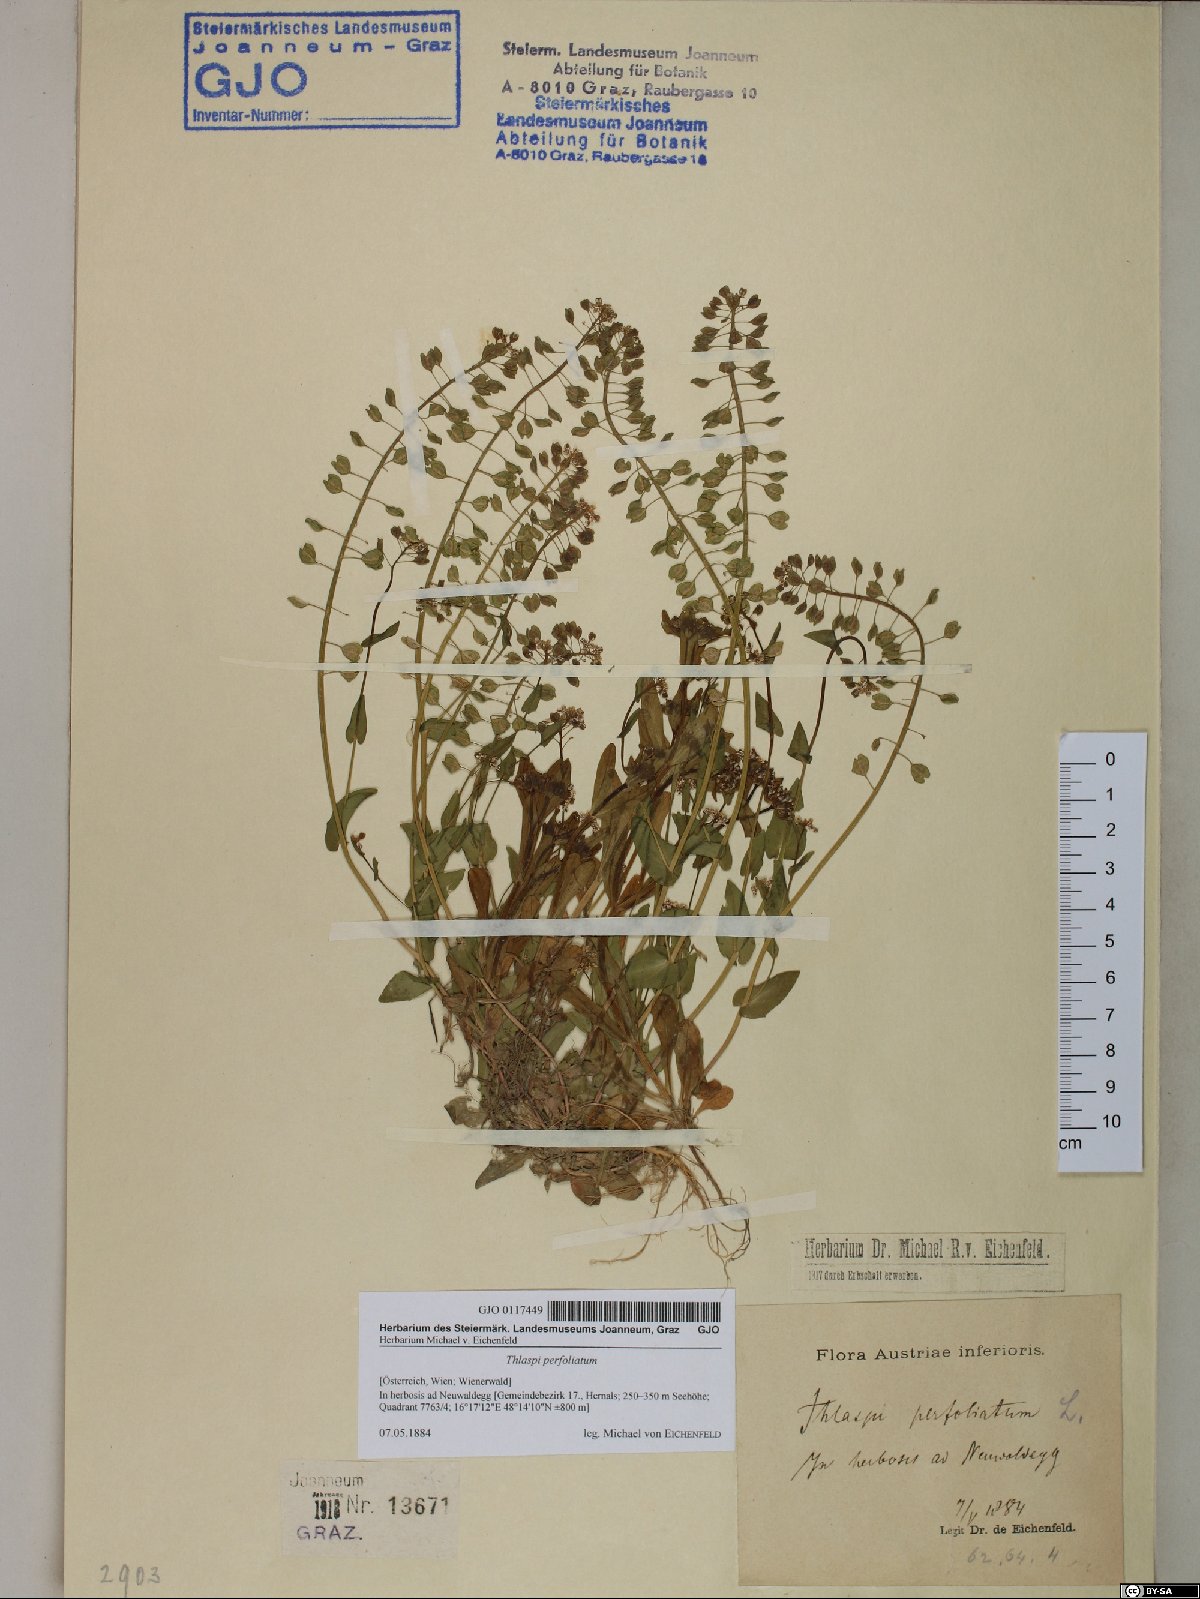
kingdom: Plantae
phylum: Tracheophyta
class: Magnoliopsida
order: Brassicales
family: Brassicaceae
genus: Noccaea
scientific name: Noccaea perfoliata
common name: Perfoliate pennycress
